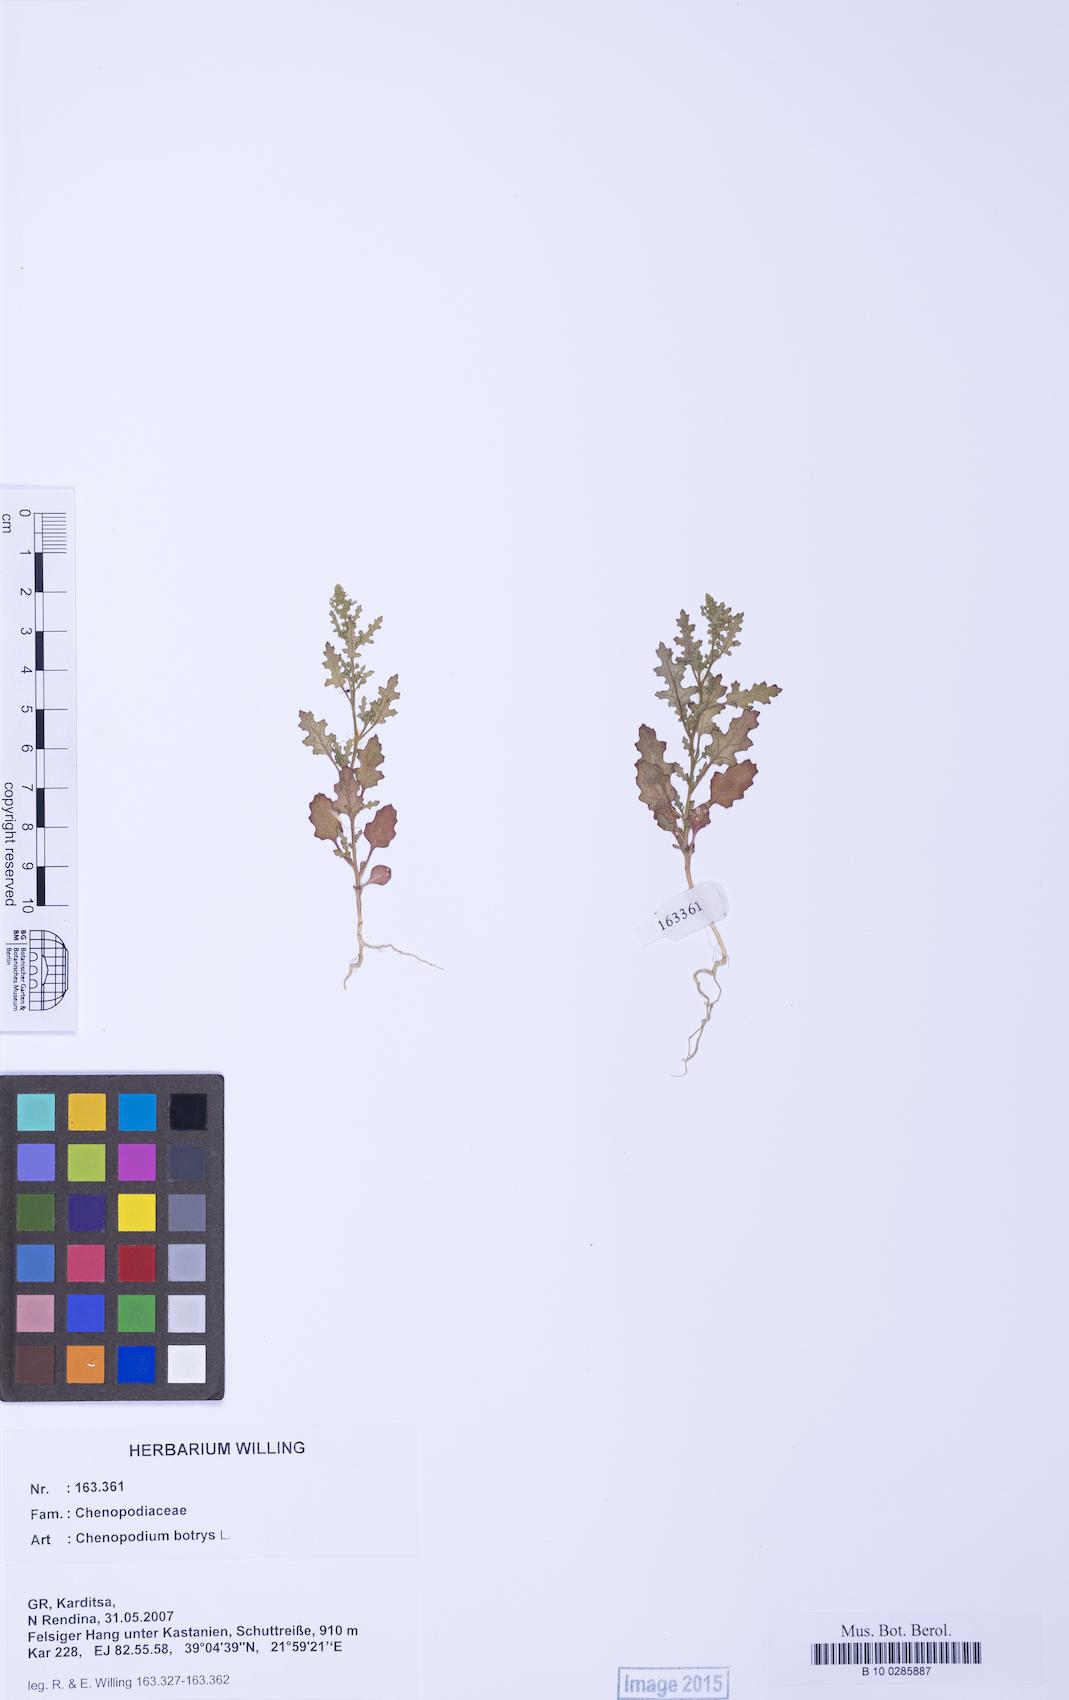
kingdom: Plantae
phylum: Tracheophyta
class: Magnoliopsida
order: Caryophyllales
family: Amaranthaceae
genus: Dysphania
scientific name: Dysphania botrys
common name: Feather-geranium
